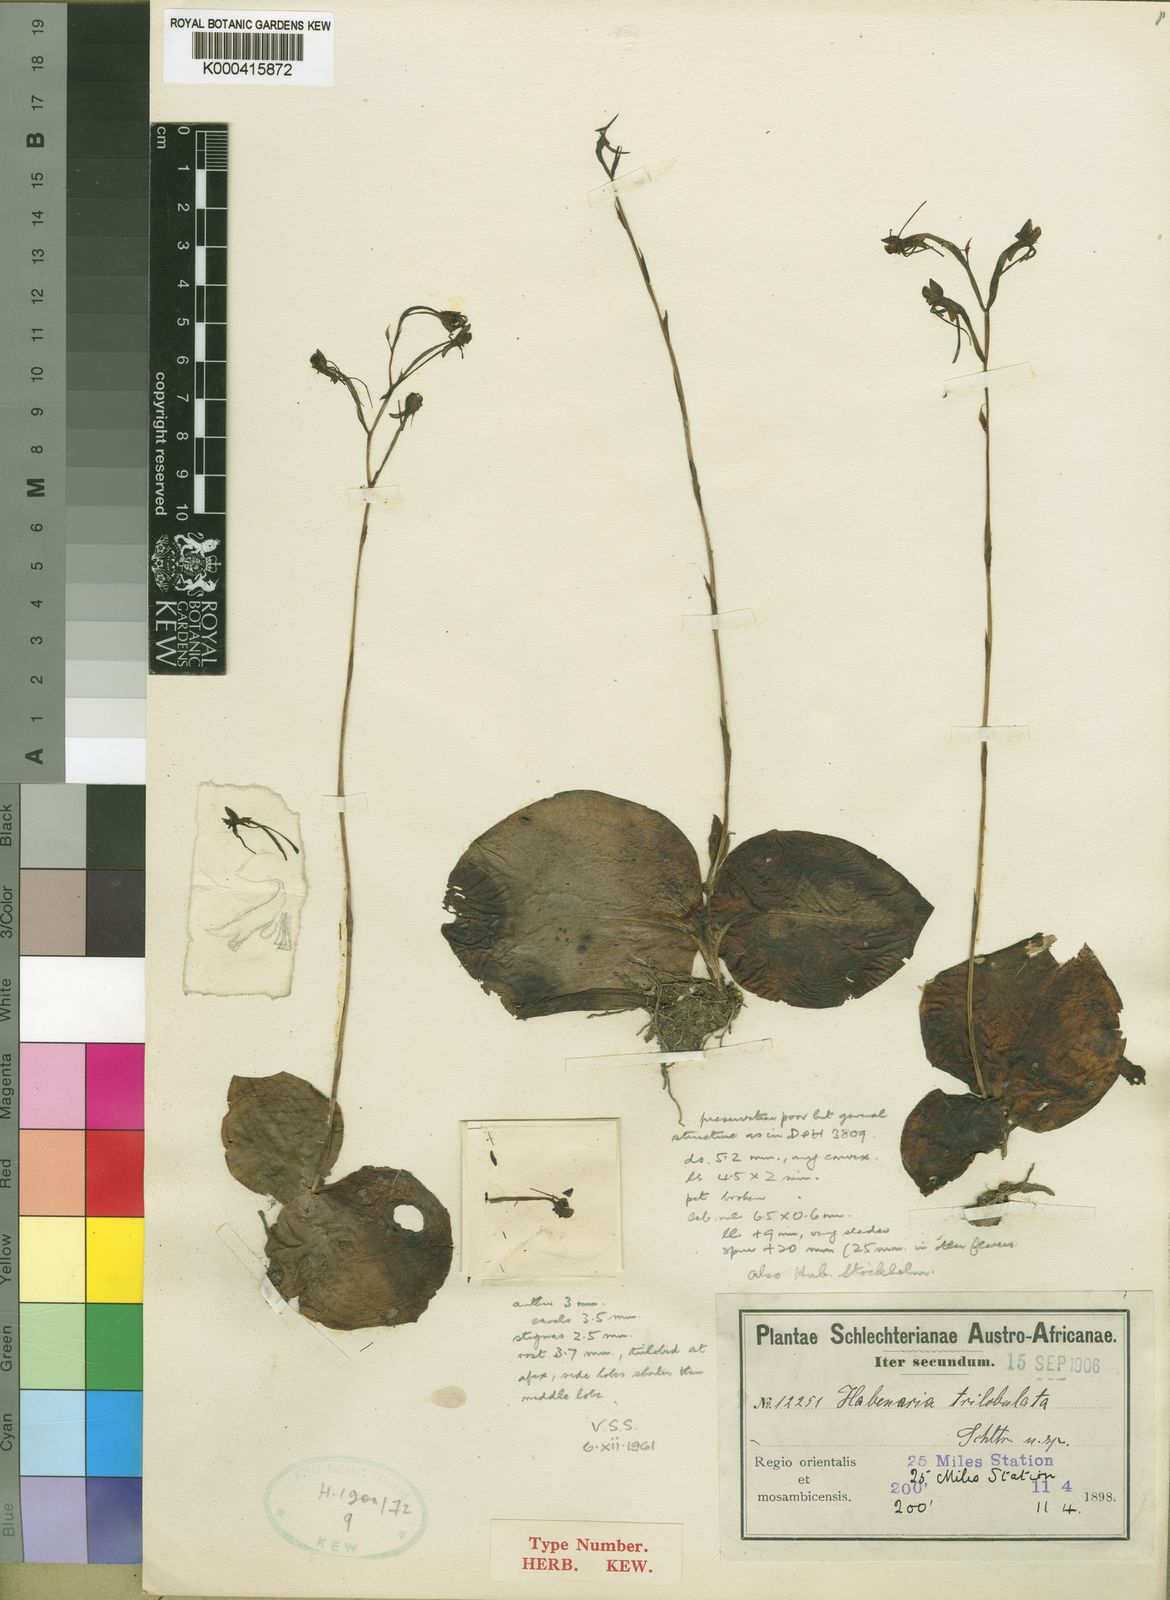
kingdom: Plantae
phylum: Tracheophyta
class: Liliopsida
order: Asparagales
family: Orchidaceae
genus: Habenaria
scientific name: Habenaria trilobulata
